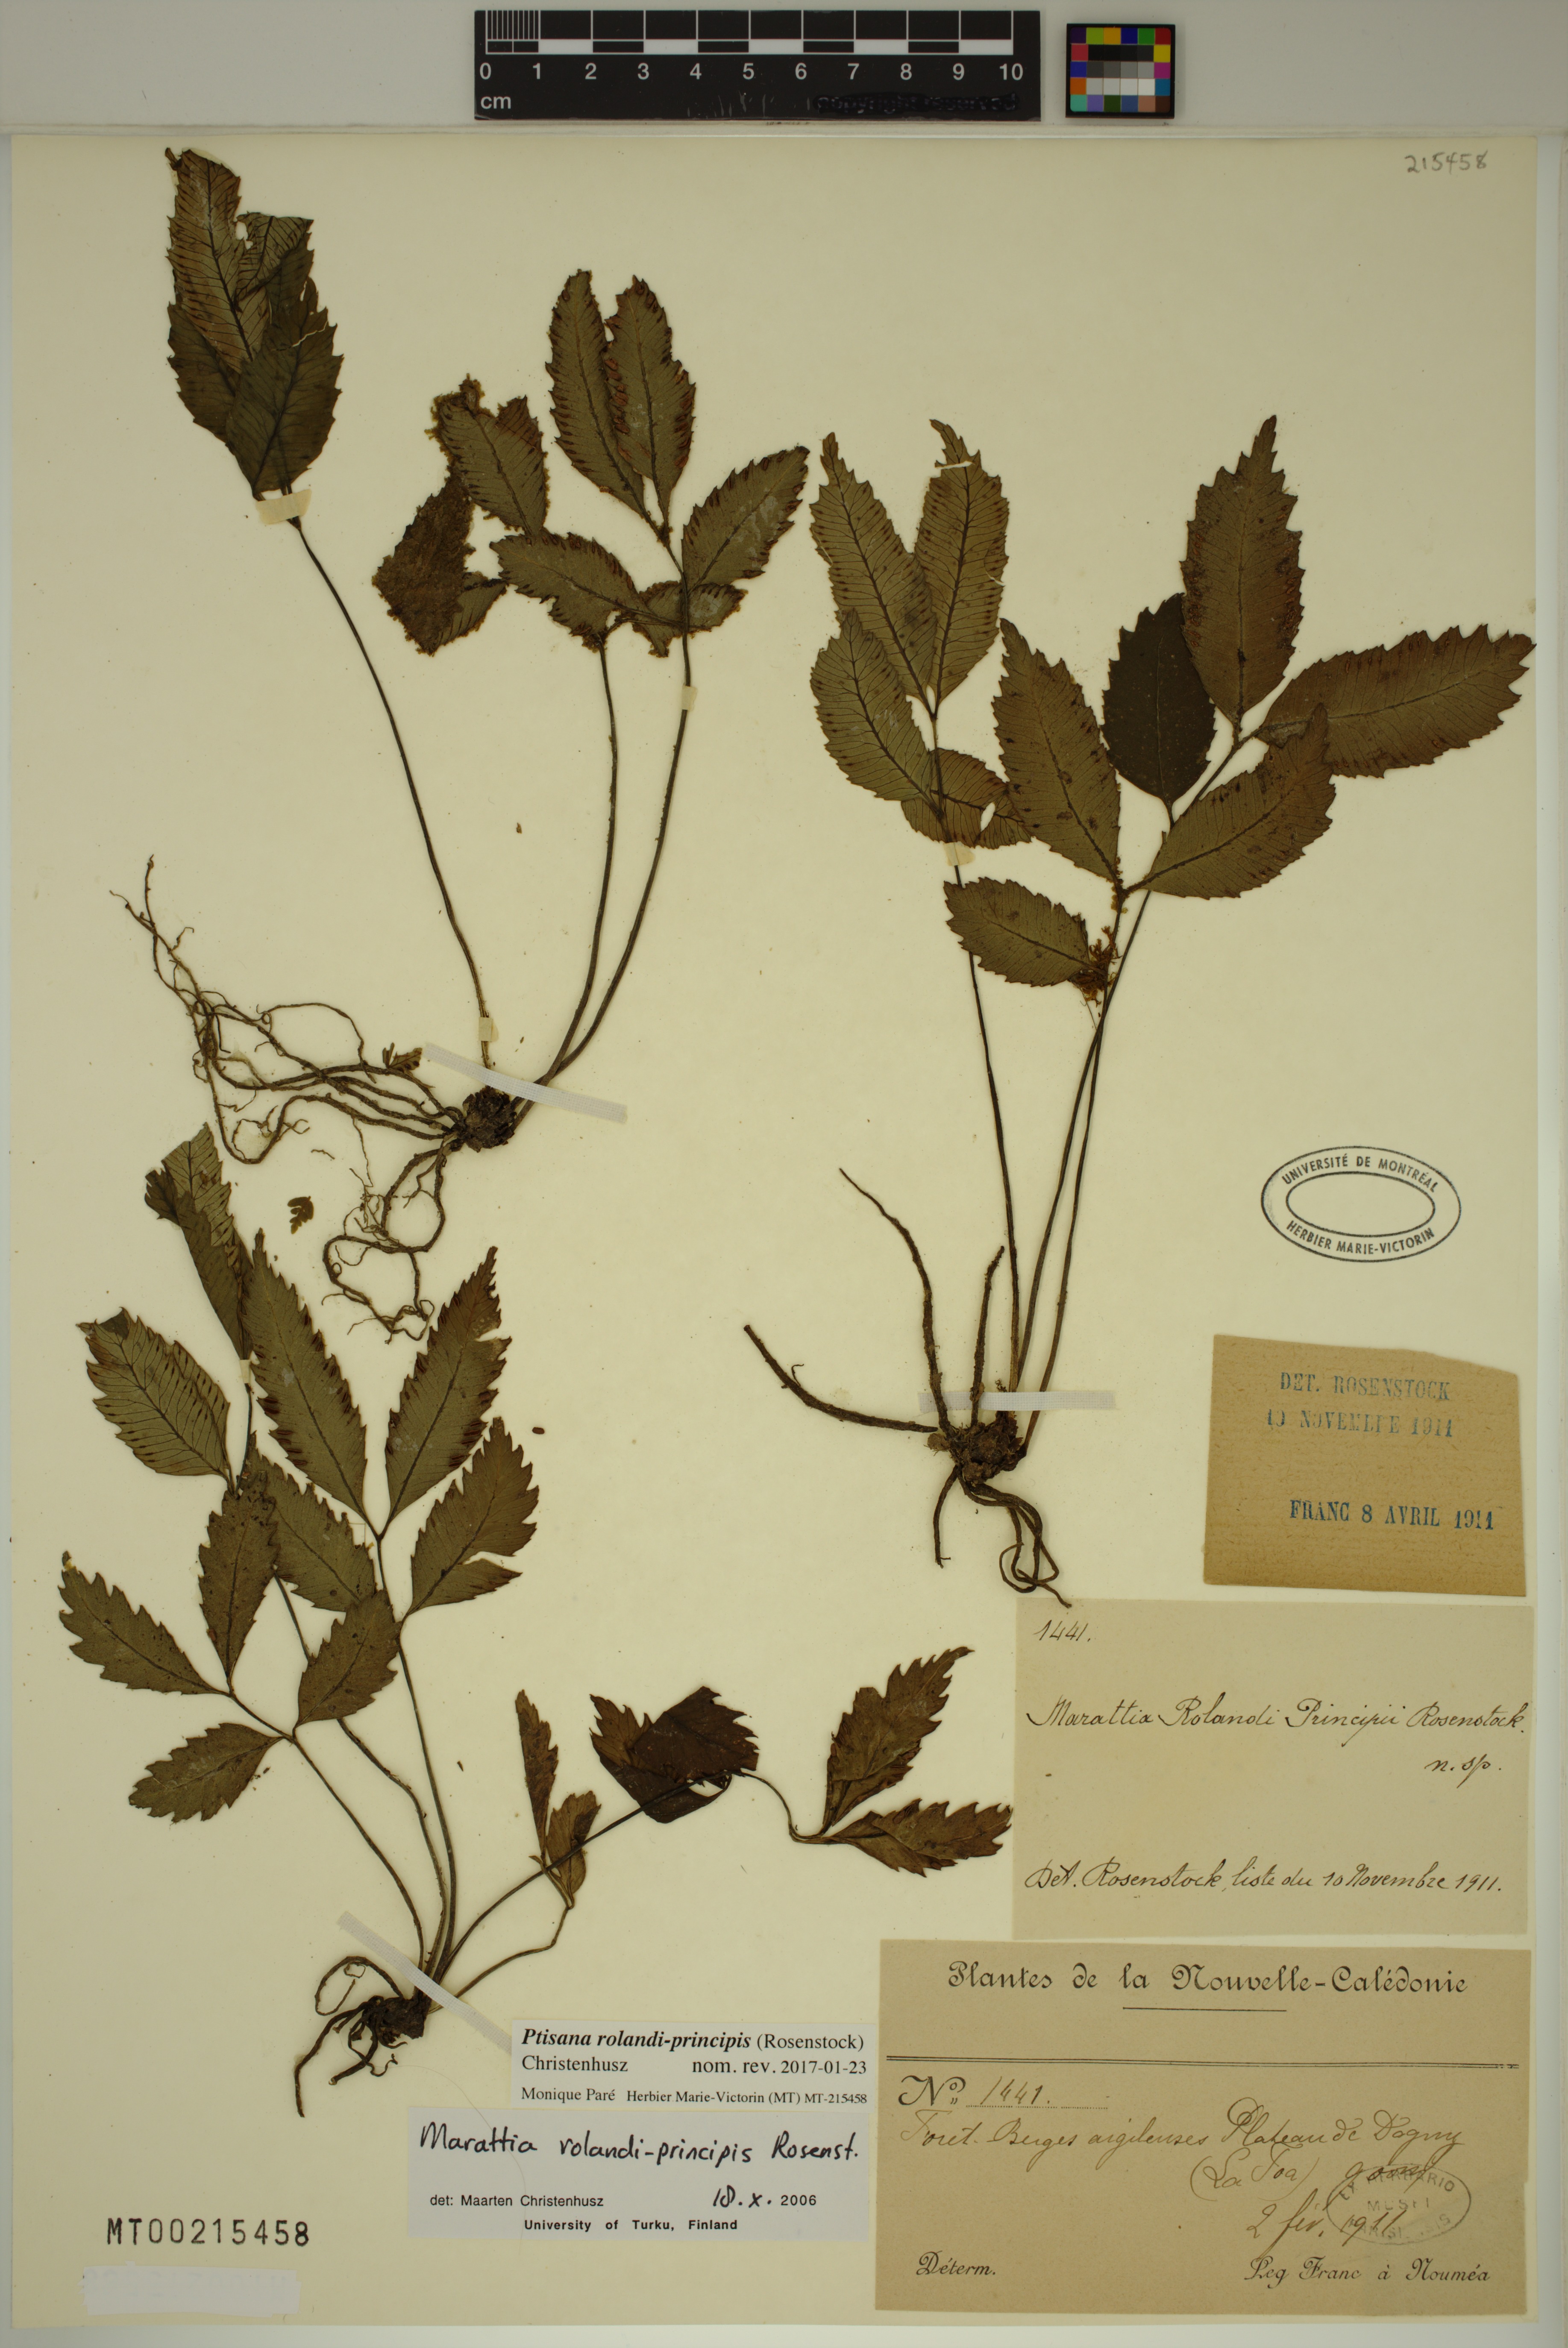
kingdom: Plantae
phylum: Tracheophyta
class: Polypodiopsida
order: Marattiales
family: Marattiaceae
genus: Ptisana
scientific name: Ptisana rolandi-principis
